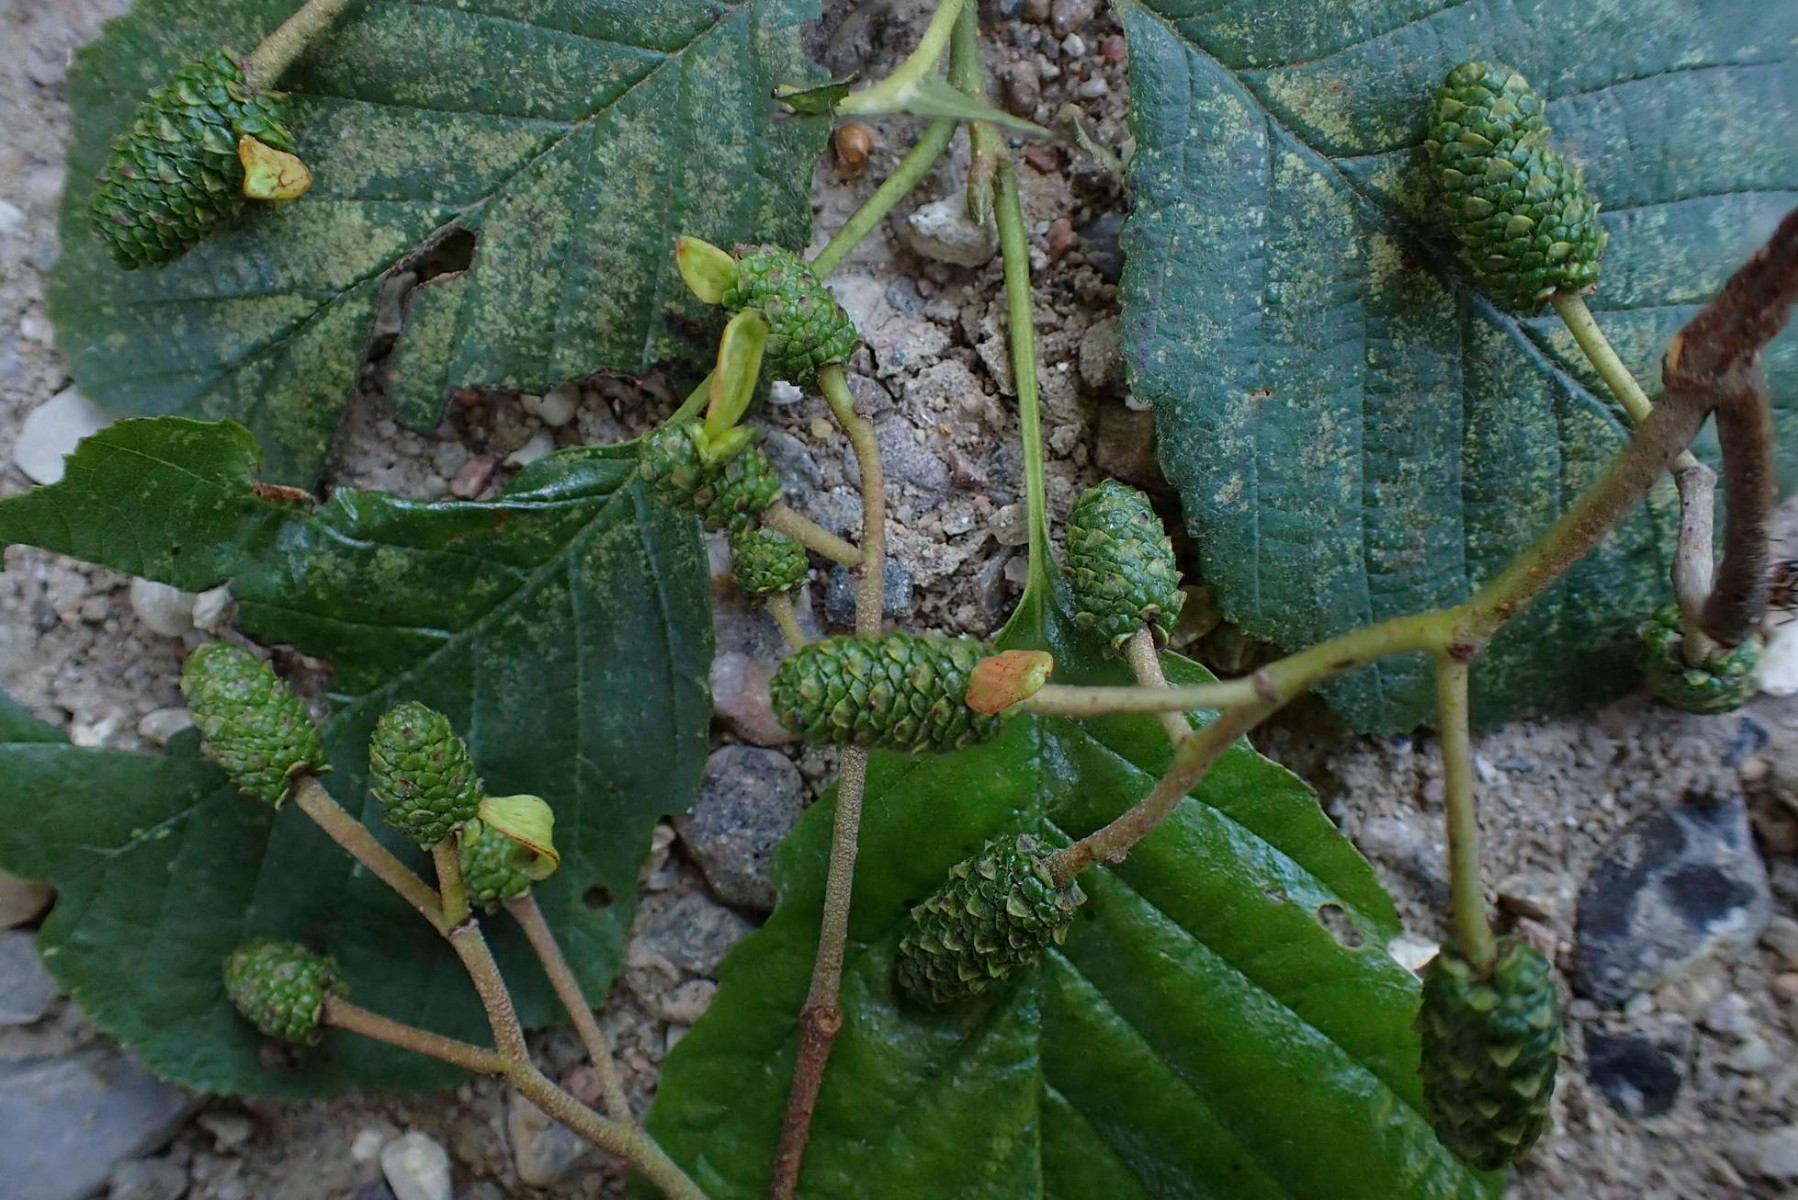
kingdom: Fungi
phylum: Ascomycota
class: Taphrinomycetes
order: Taphrinales
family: Taphrinaceae
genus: Taphrina
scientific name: Taphrina alni
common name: Alder tongue
